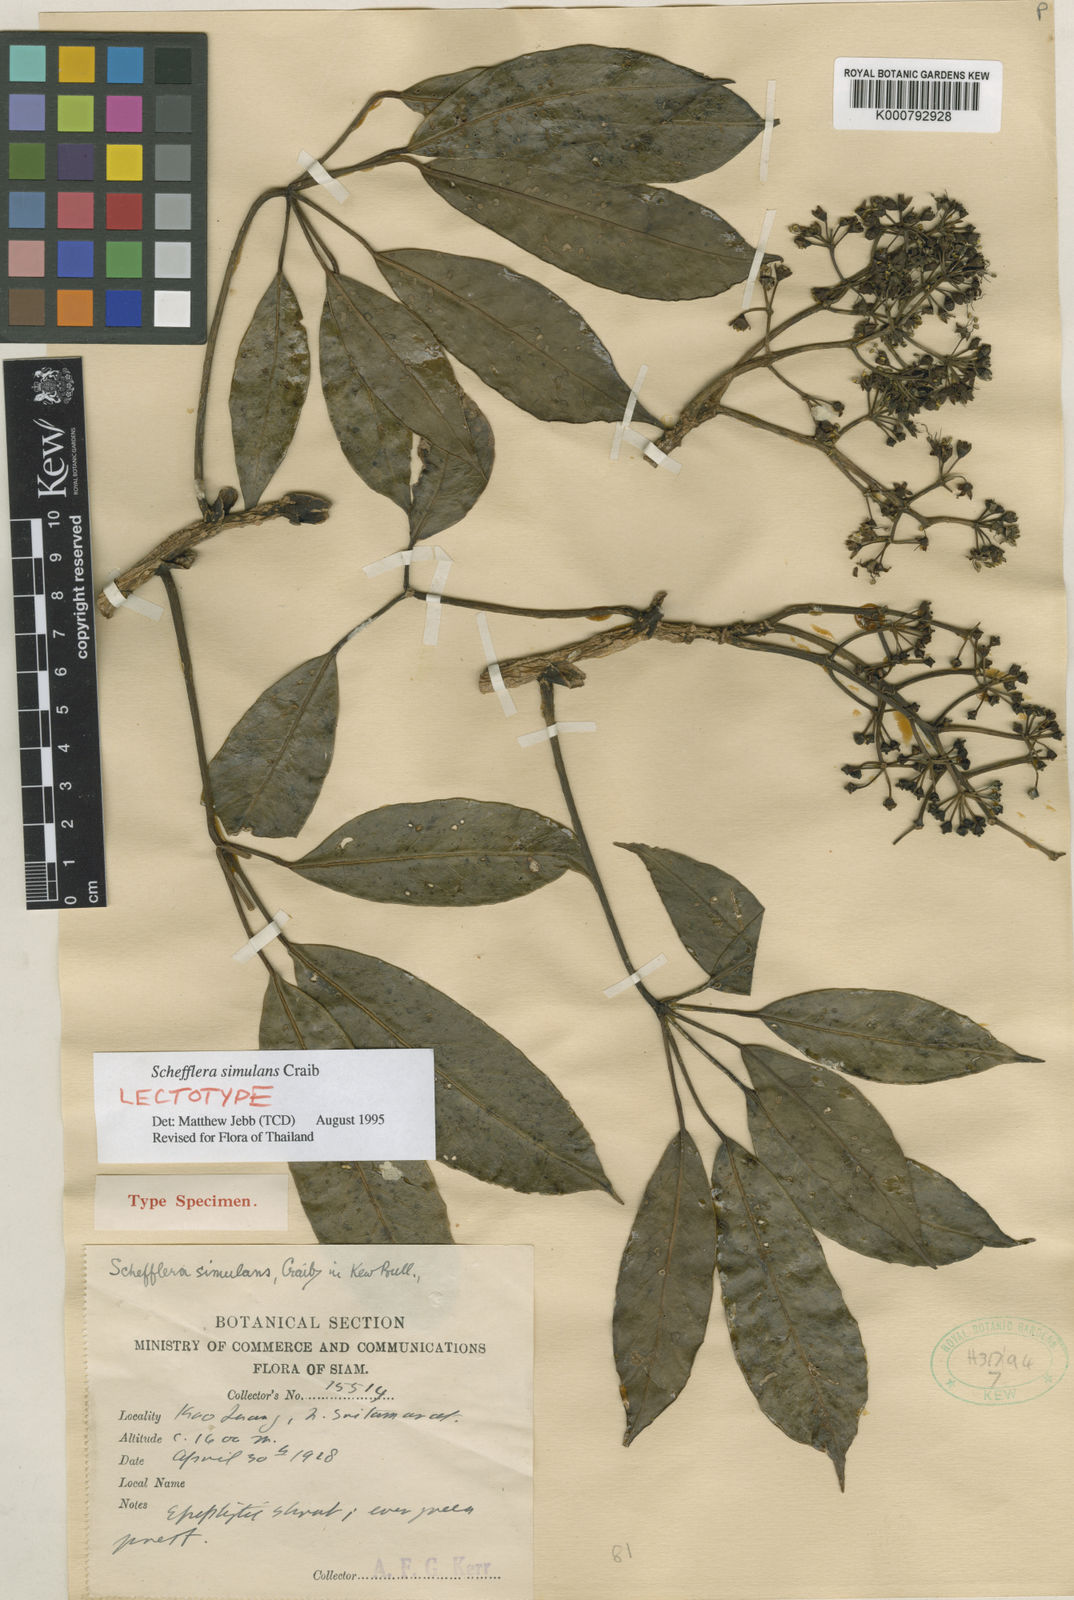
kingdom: Plantae
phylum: Tracheophyta
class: Magnoliopsida
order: Apiales
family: Araliaceae
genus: Heptapleurum
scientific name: Heptapleurum affine
